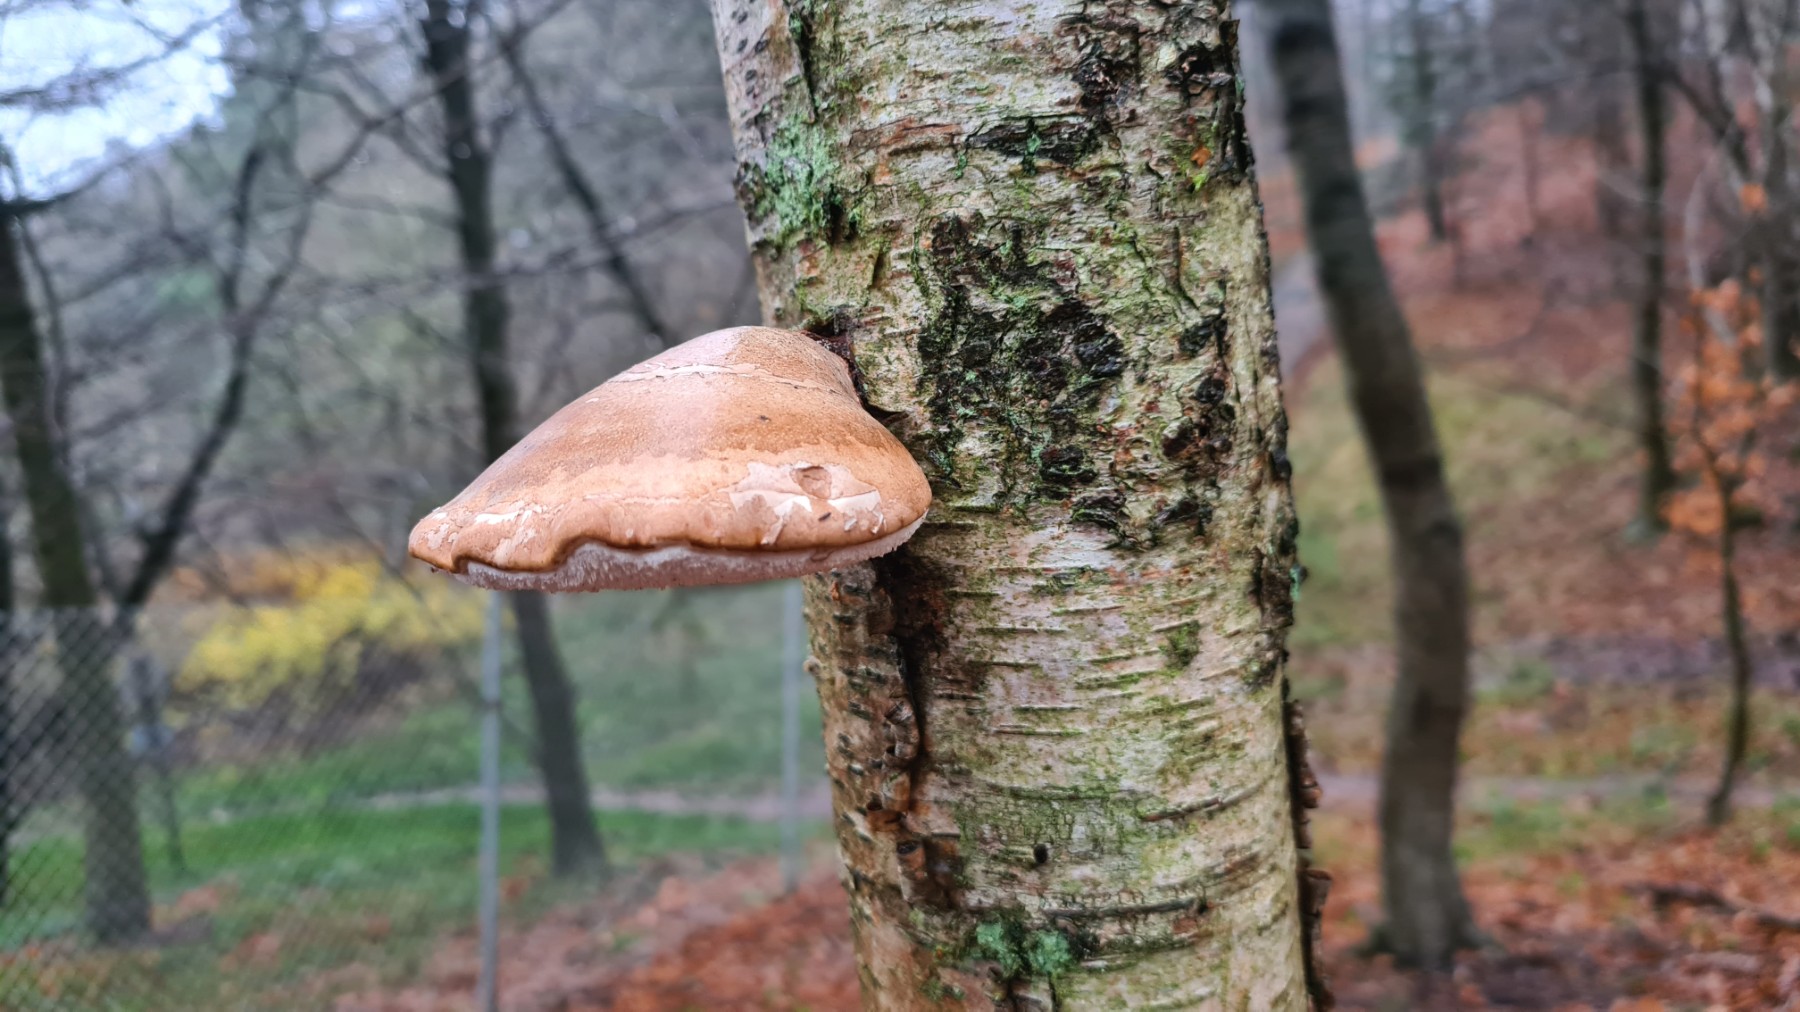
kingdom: Fungi
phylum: Basidiomycota
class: Agaricomycetes
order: Polyporales
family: Fomitopsidaceae
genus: Fomitopsis
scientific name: Fomitopsis betulina
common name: birkeporesvamp
